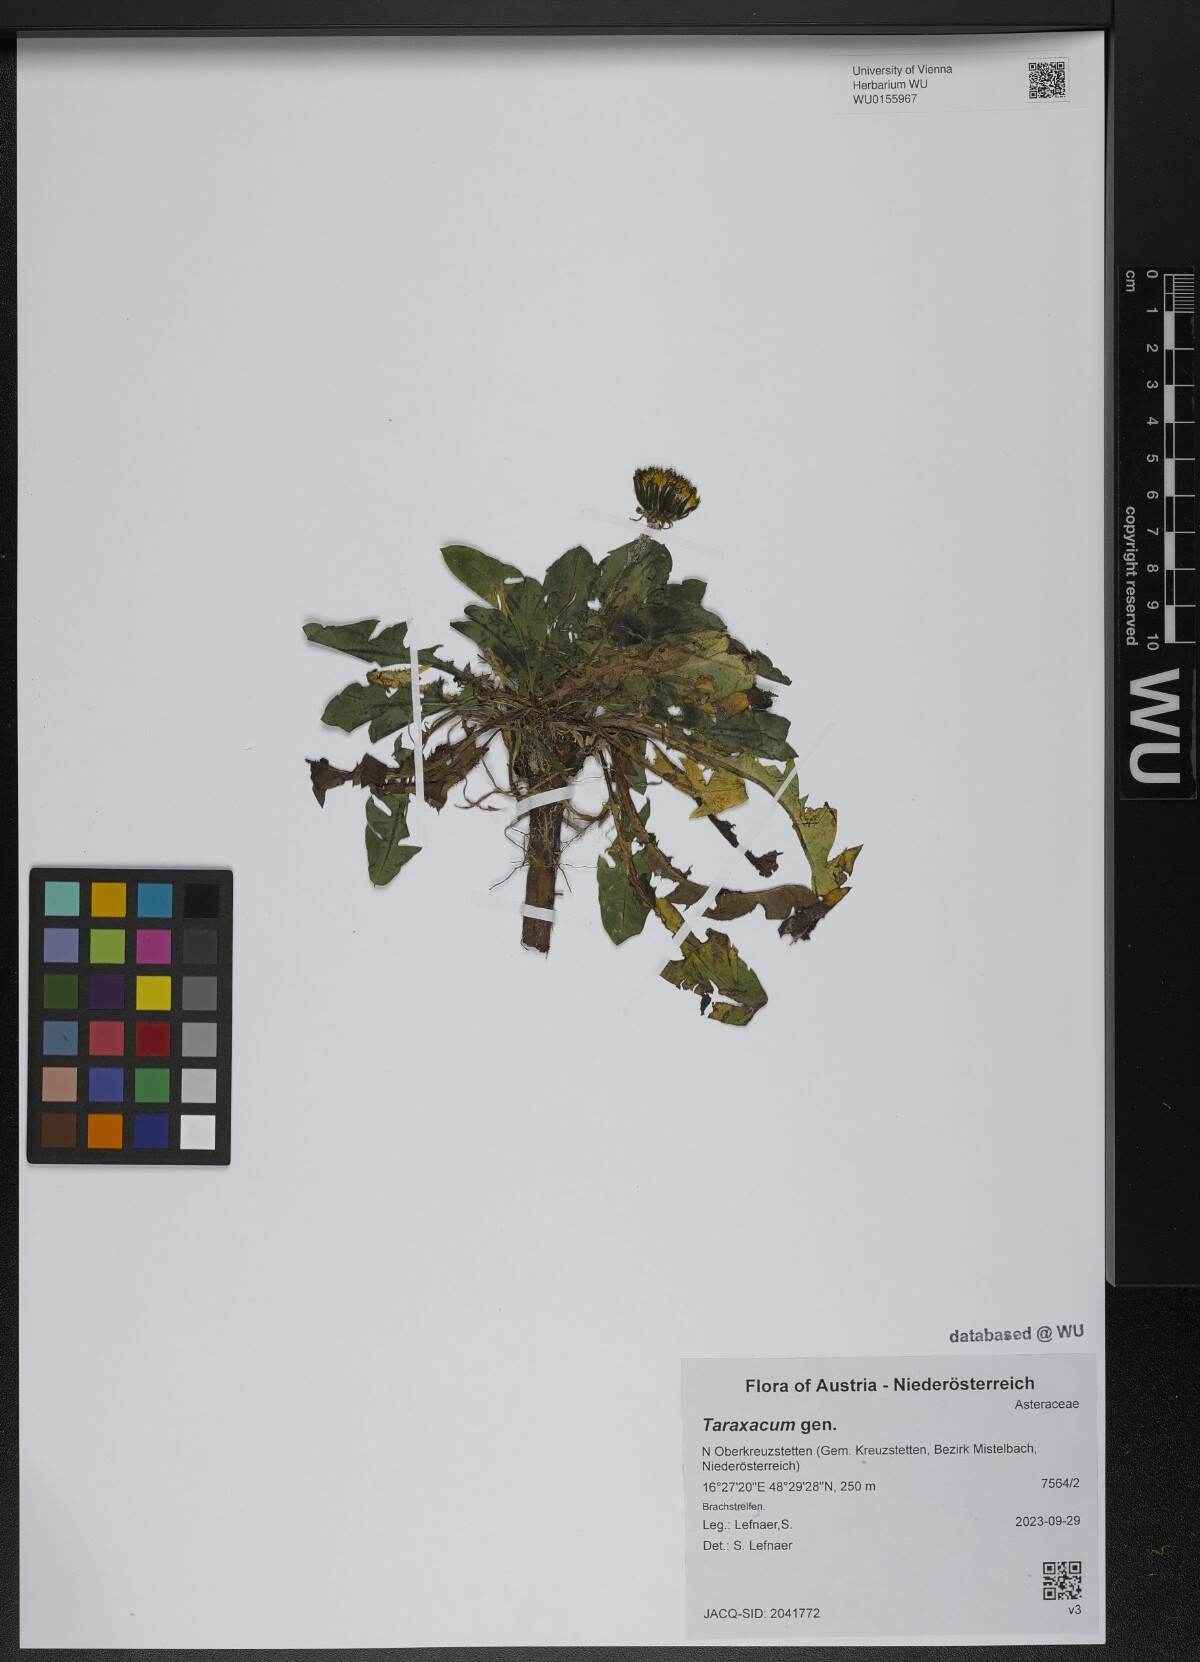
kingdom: Plantae
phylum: Tracheophyta
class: Magnoliopsida
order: Asterales
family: Asteraceae
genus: Taraxacum
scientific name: Taraxacum
